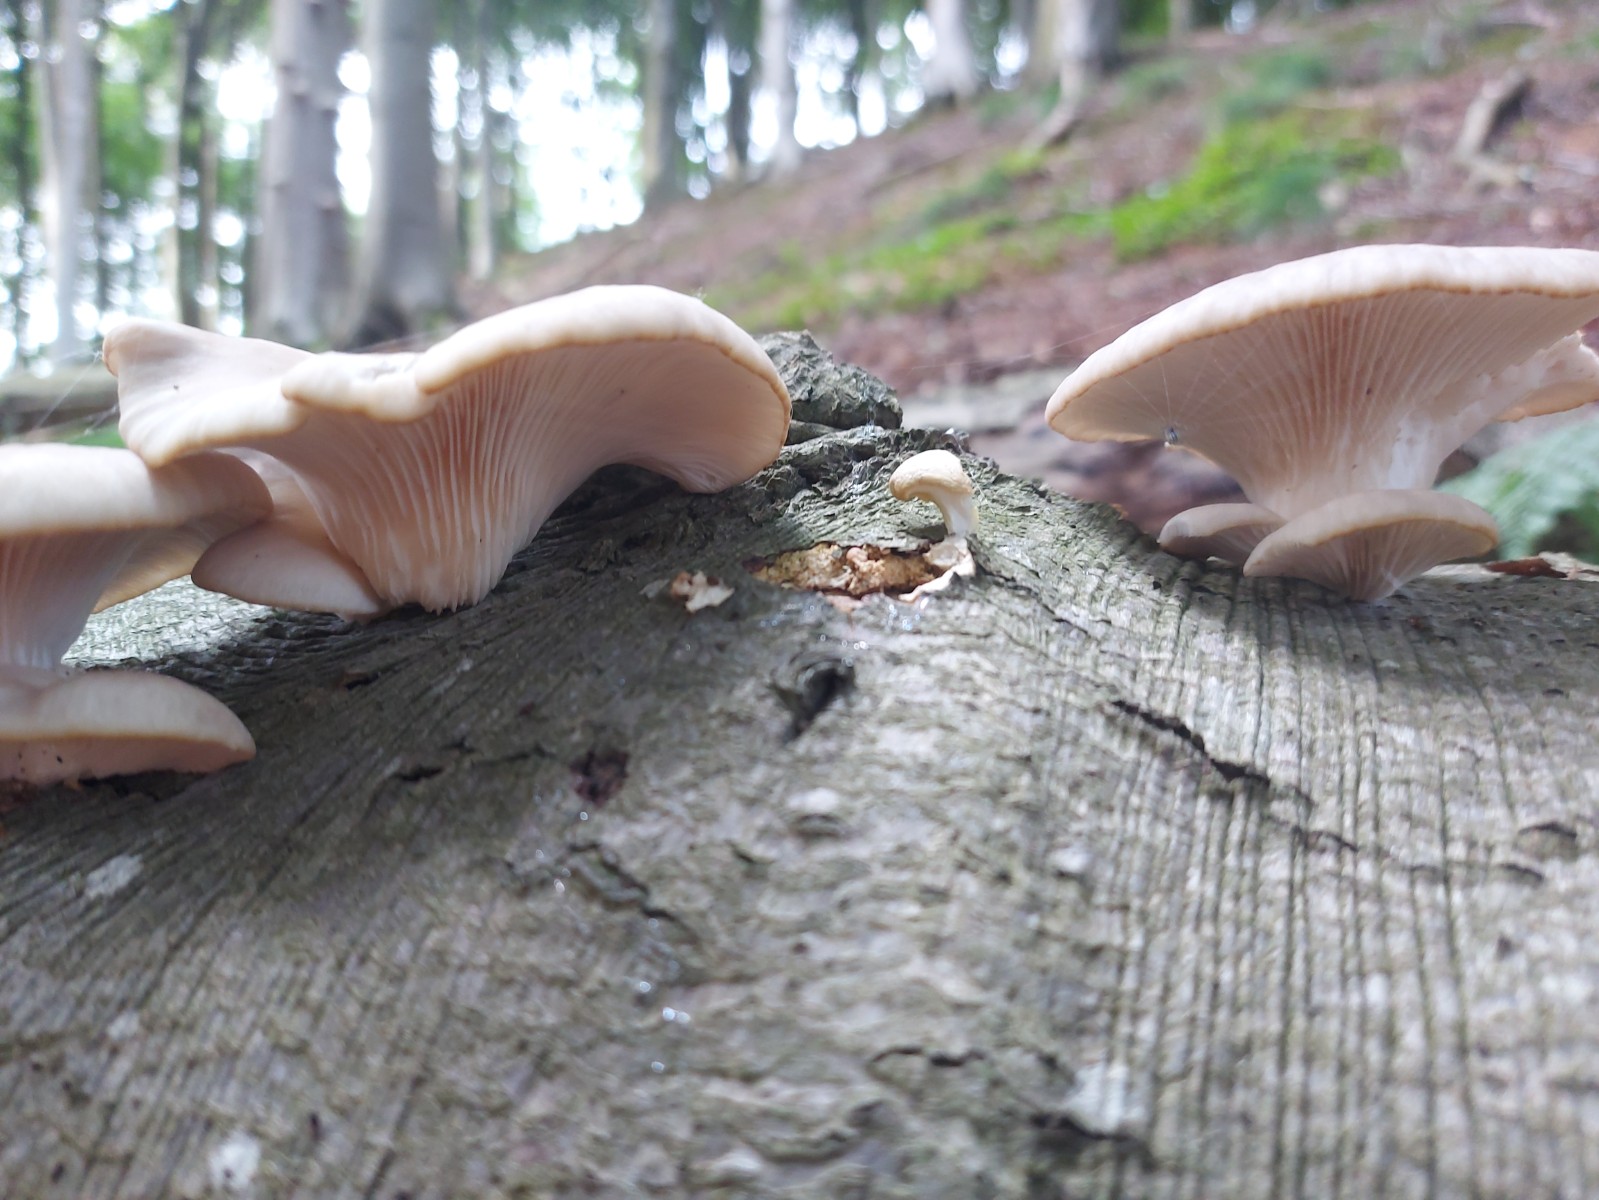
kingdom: Fungi
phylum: Basidiomycota
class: Agaricomycetes
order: Agaricales
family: Pleurotaceae
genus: Pleurotus
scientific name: Pleurotus pulmonarius
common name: sommer-østershat
